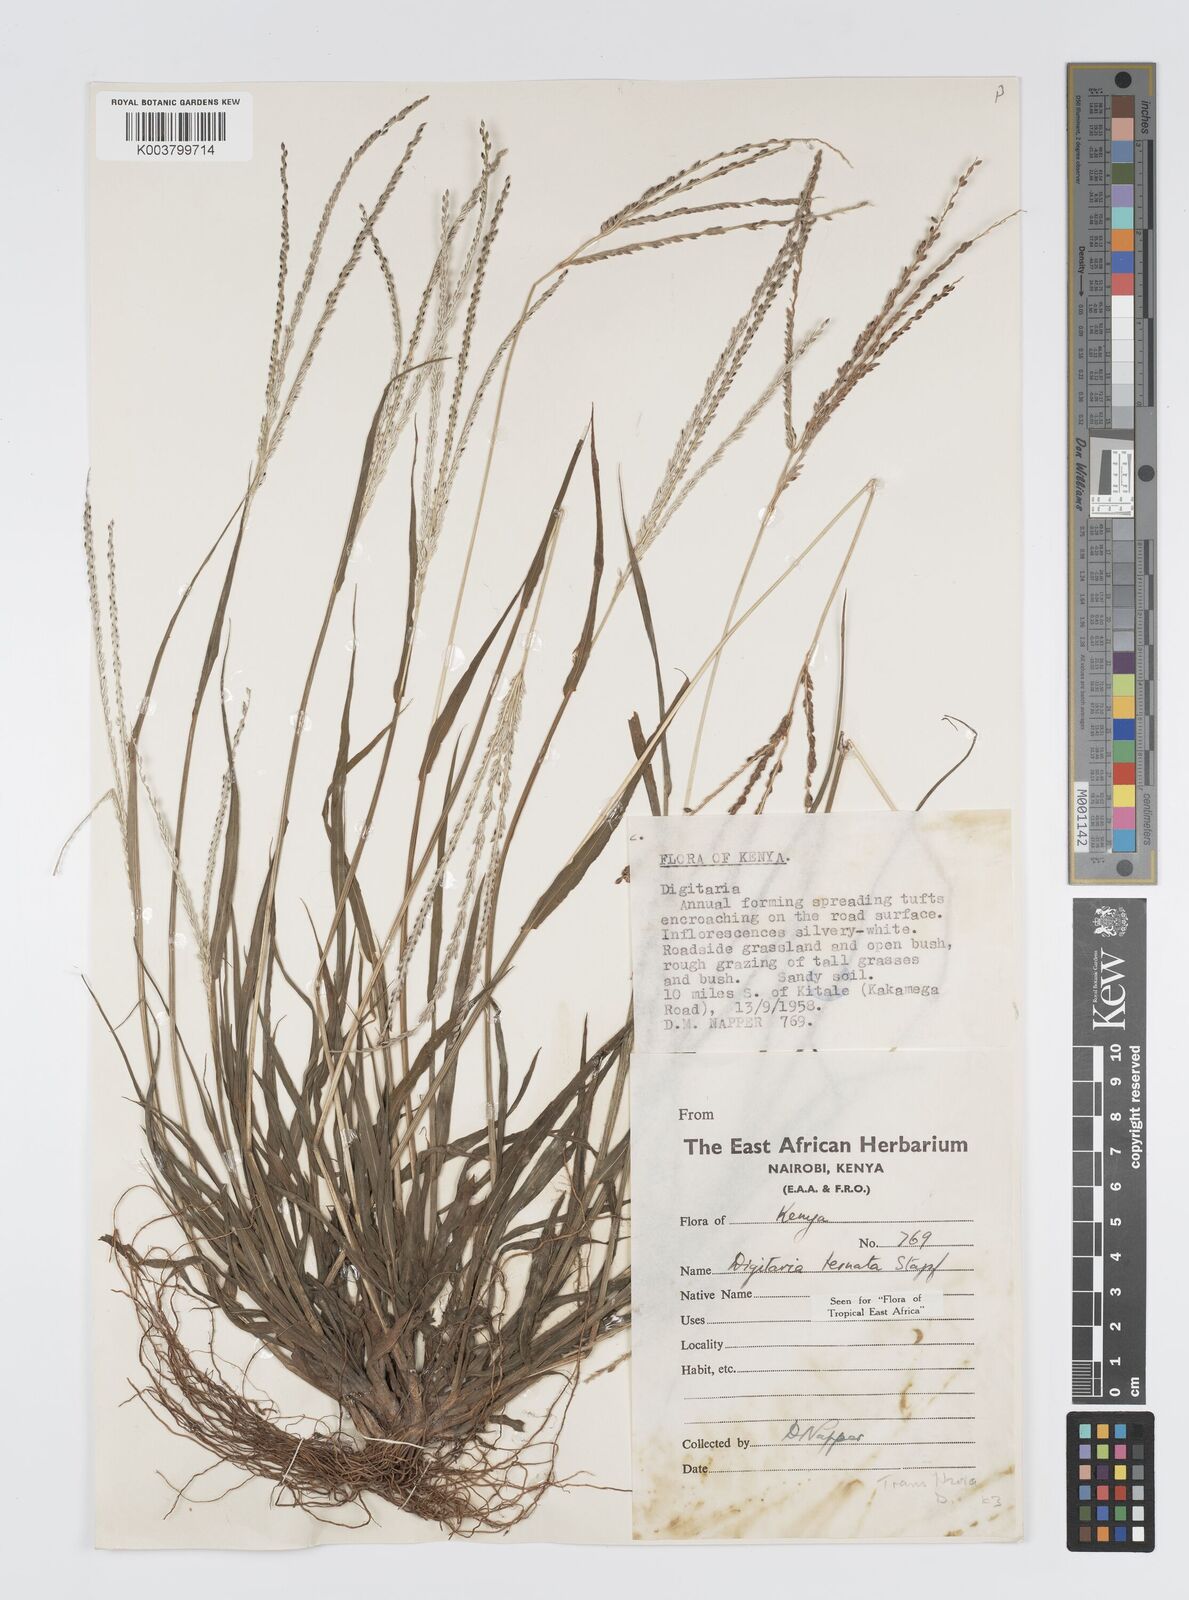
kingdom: Plantae
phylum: Tracheophyta
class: Liliopsida
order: Poales
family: Poaceae
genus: Digitaria
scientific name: Digitaria ternata
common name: Blackseed crabgrass
